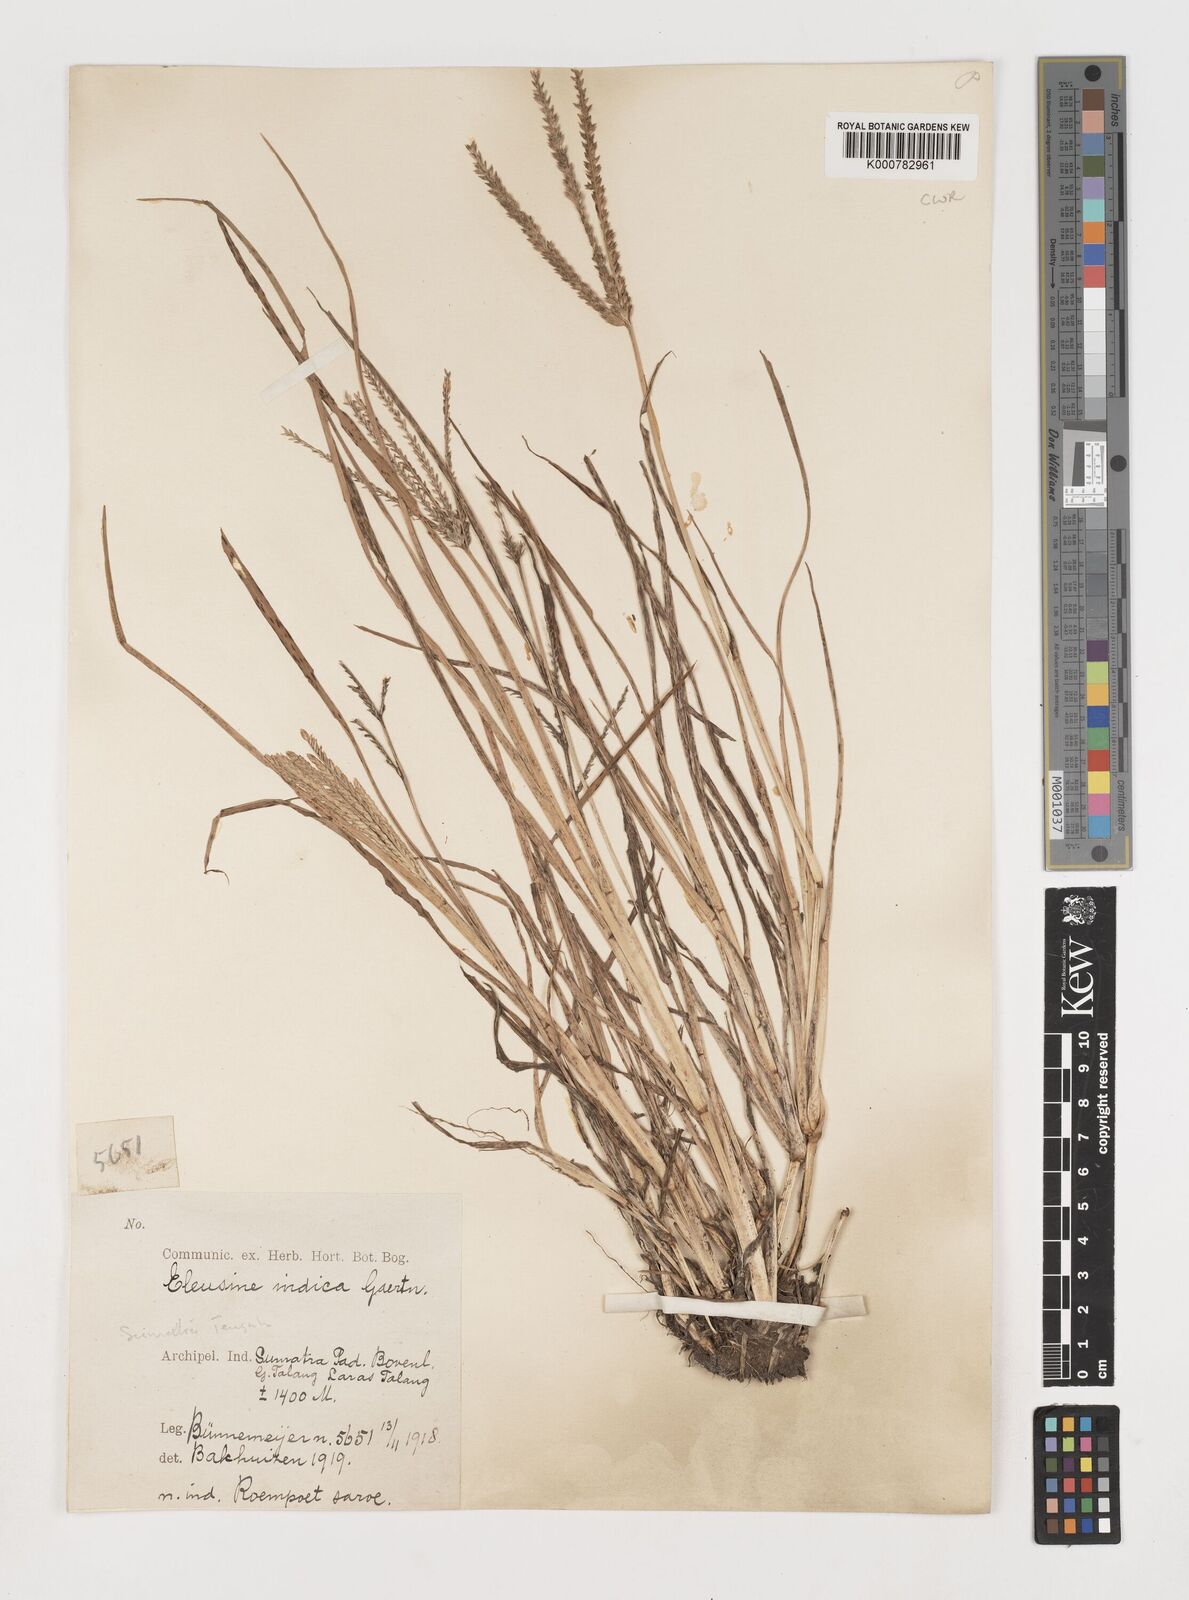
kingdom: Plantae
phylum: Tracheophyta
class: Liliopsida
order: Poales
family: Poaceae
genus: Eleusine
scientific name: Eleusine indica
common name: Yard-grass
